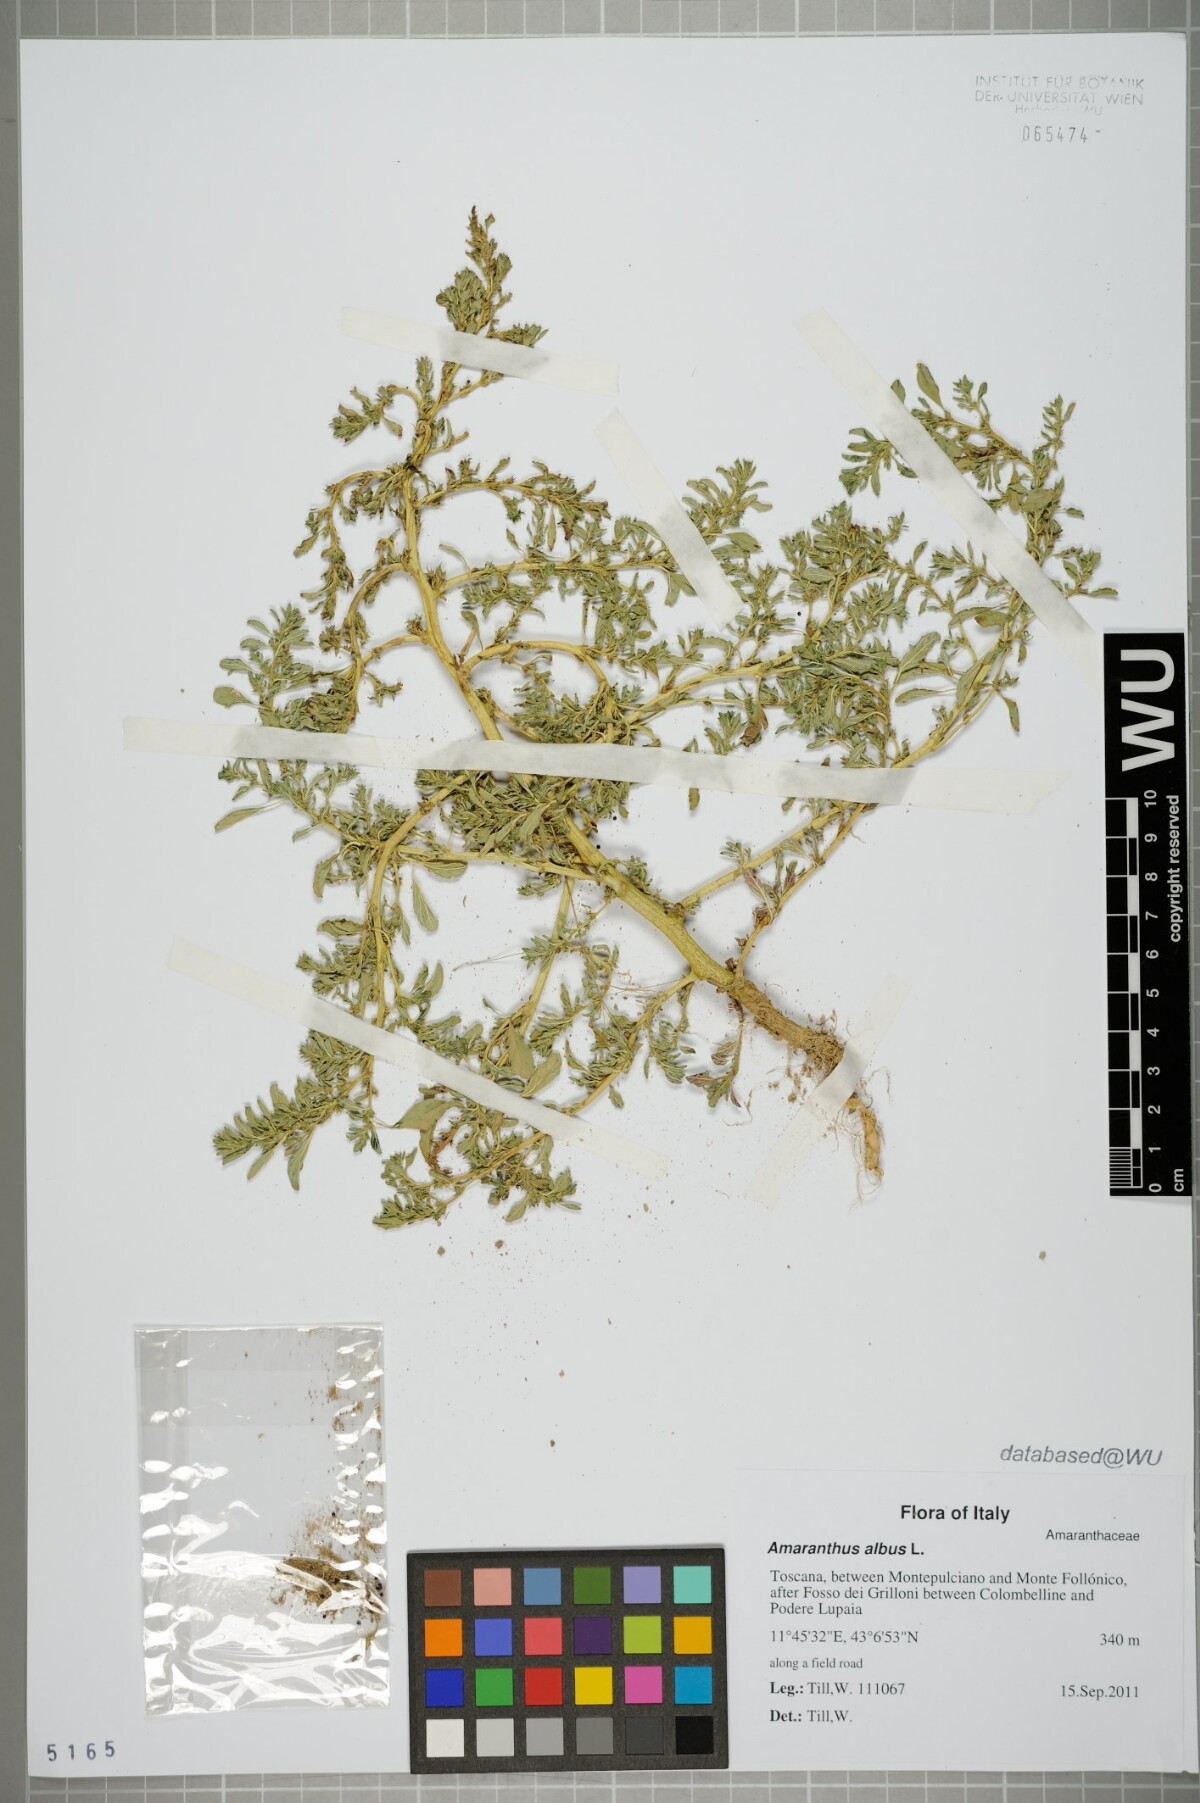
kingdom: Plantae
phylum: Tracheophyta
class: Magnoliopsida
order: Caryophyllales
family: Amaranthaceae
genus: Amaranthus
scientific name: Amaranthus albus
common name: White pigweed
